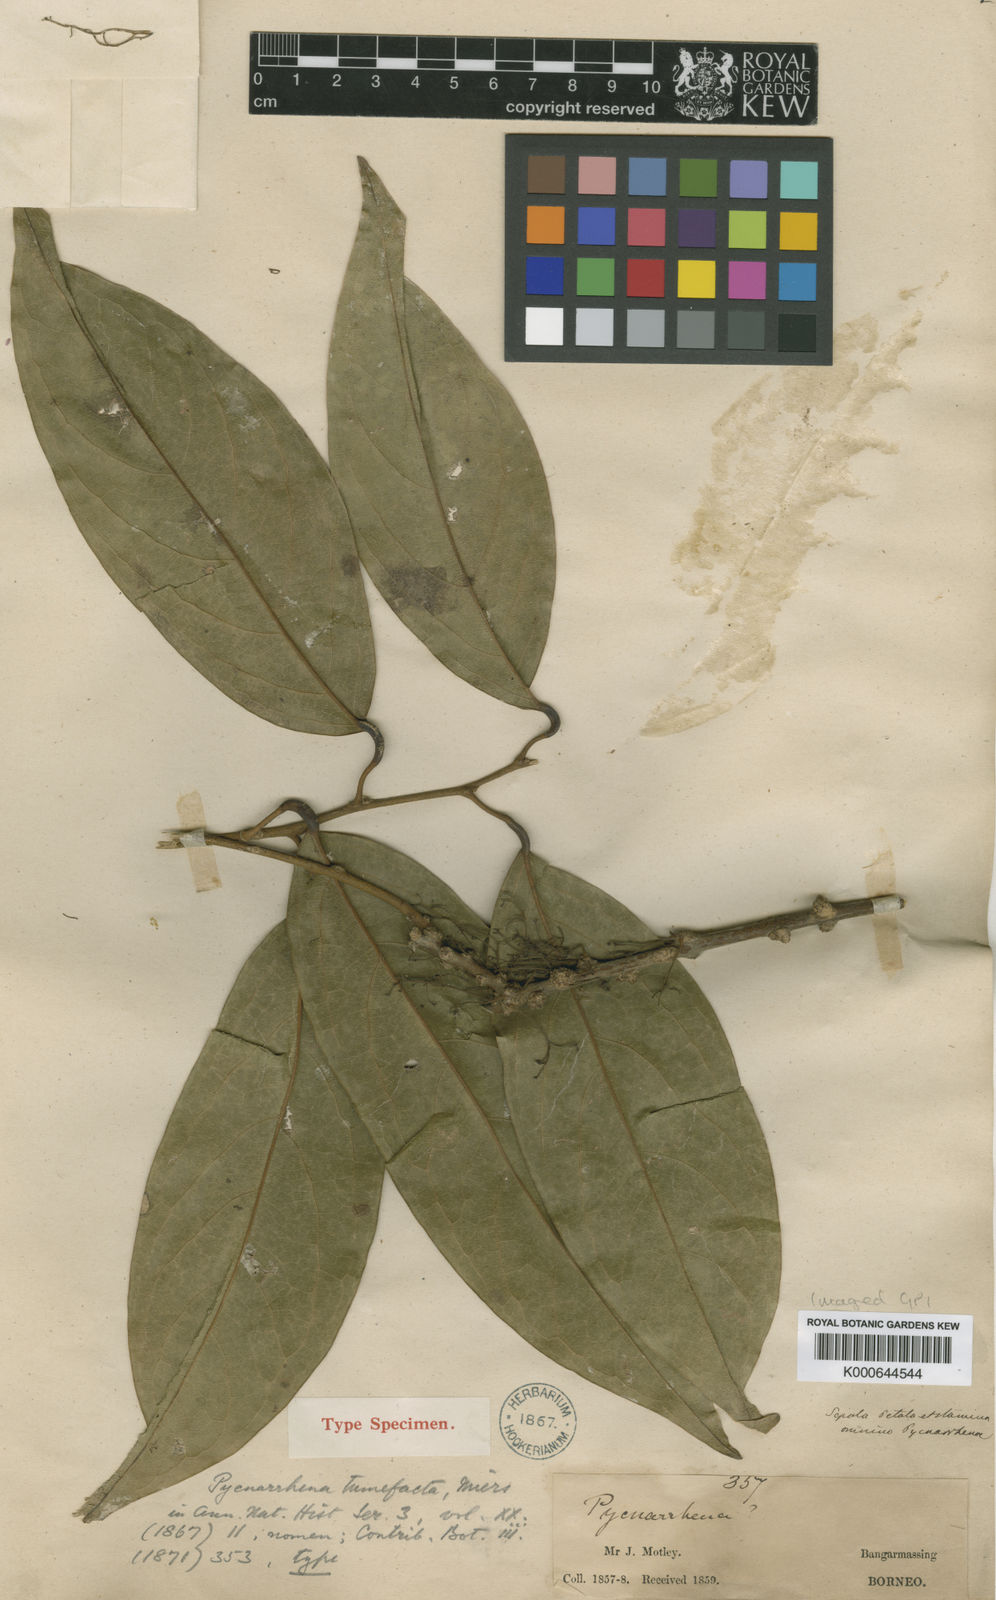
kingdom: Plantae
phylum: Tracheophyta
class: Magnoliopsida
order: Ranunculales
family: Menispermaceae
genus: Pycnarrhena
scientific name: Pycnarrhena tumefacta
